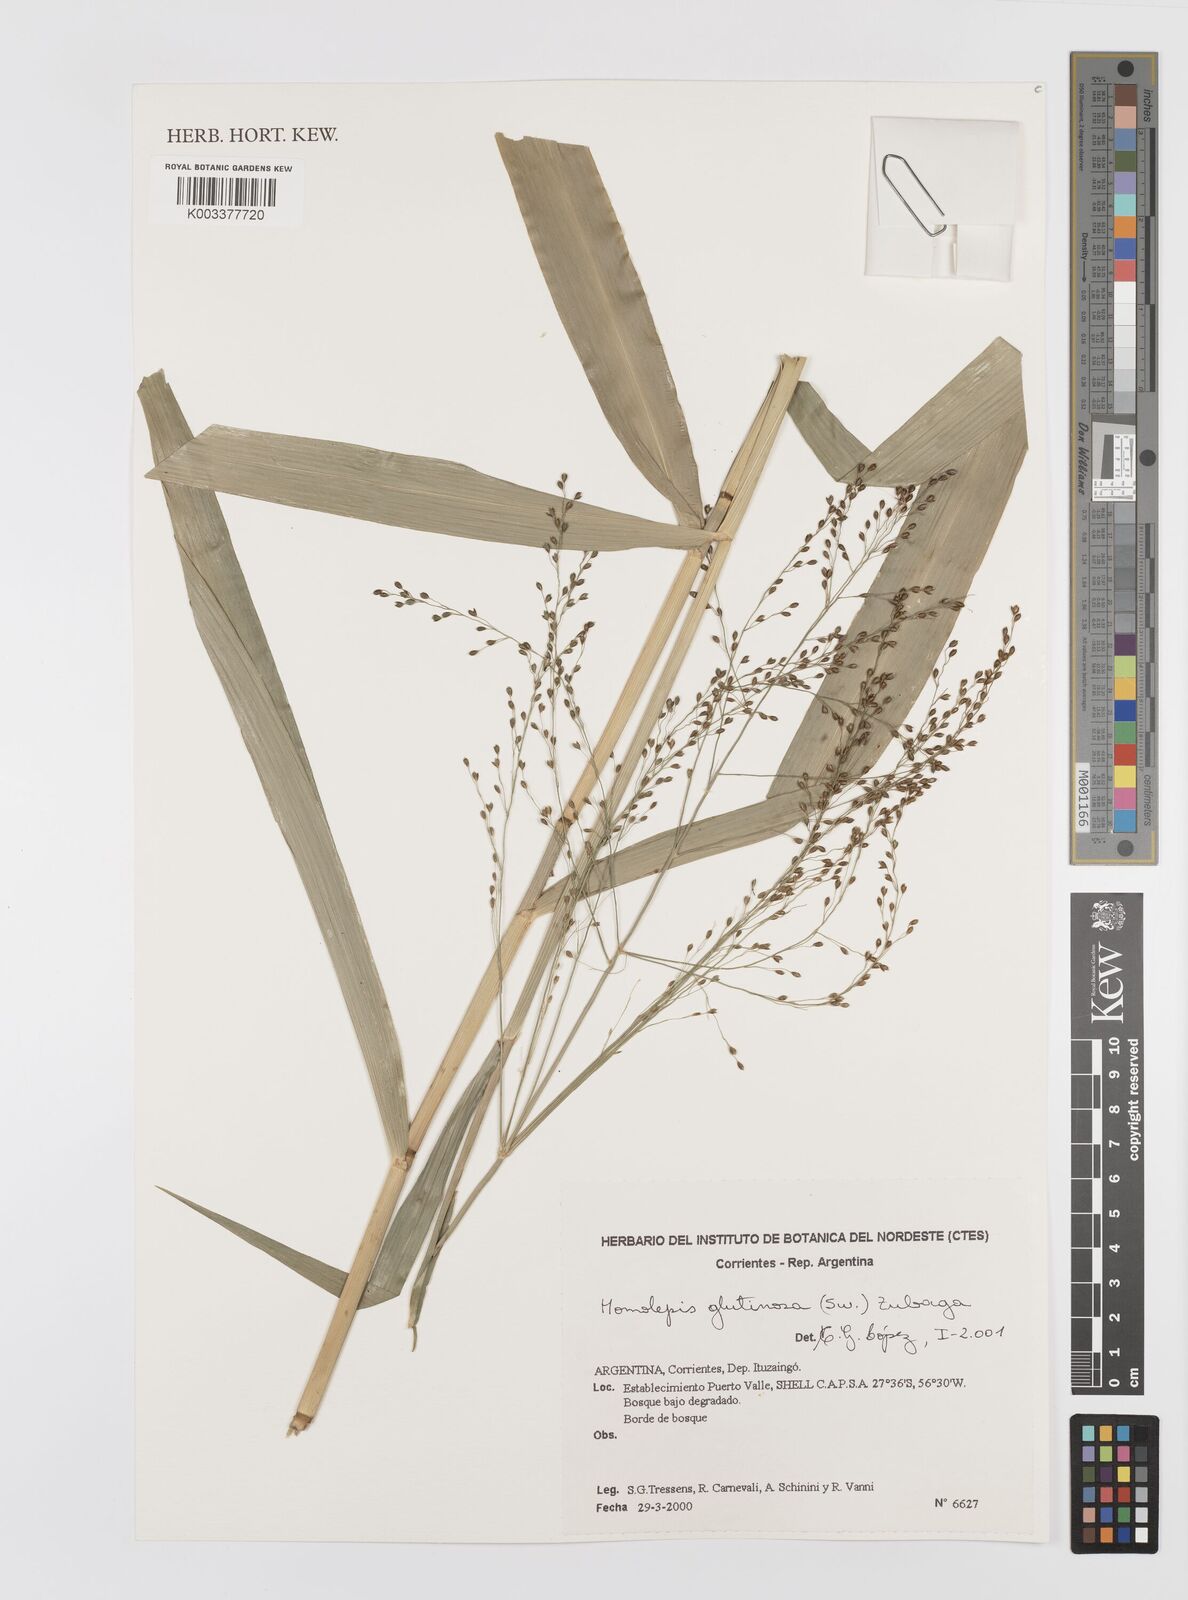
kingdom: Plantae
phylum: Tracheophyta
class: Liliopsida
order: Poales
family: Poaceae
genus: Homolepis
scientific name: Homolepis glutinosa
